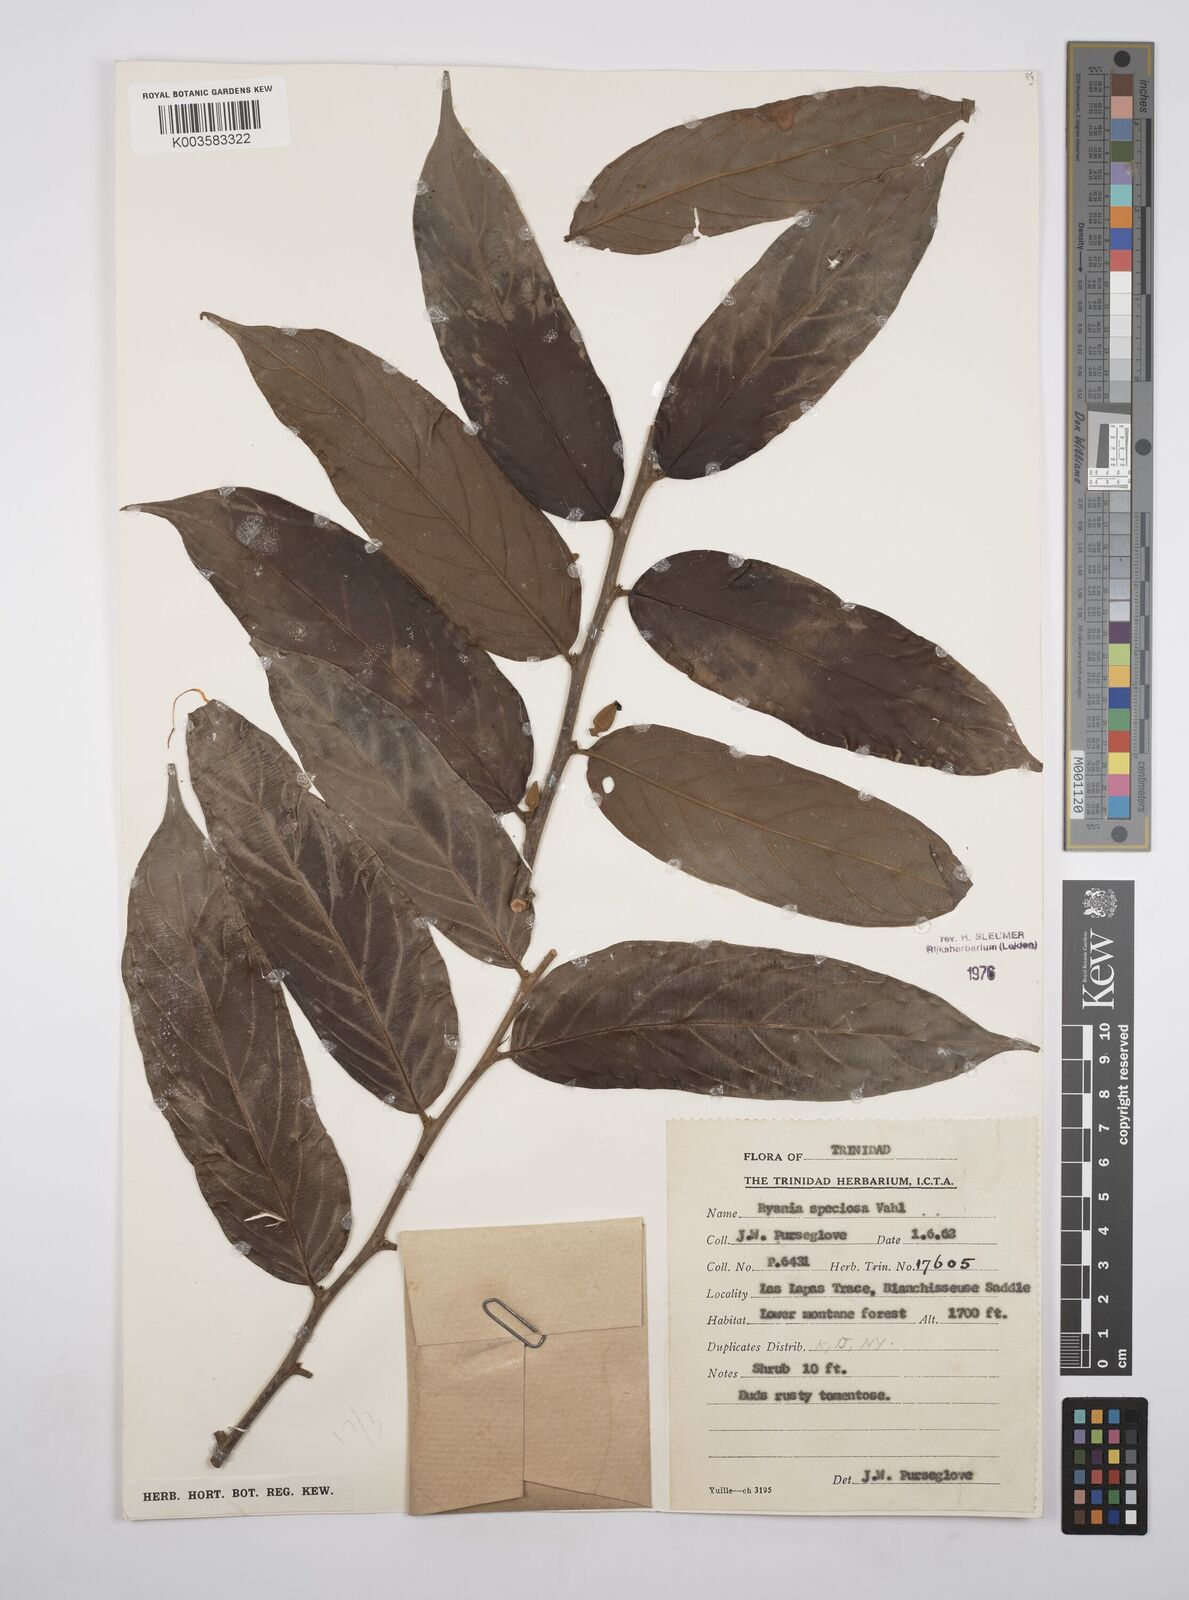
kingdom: Plantae
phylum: Tracheophyta
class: Magnoliopsida
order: Malpighiales
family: Salicaceae
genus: Ryania
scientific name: Ryania speciosa
